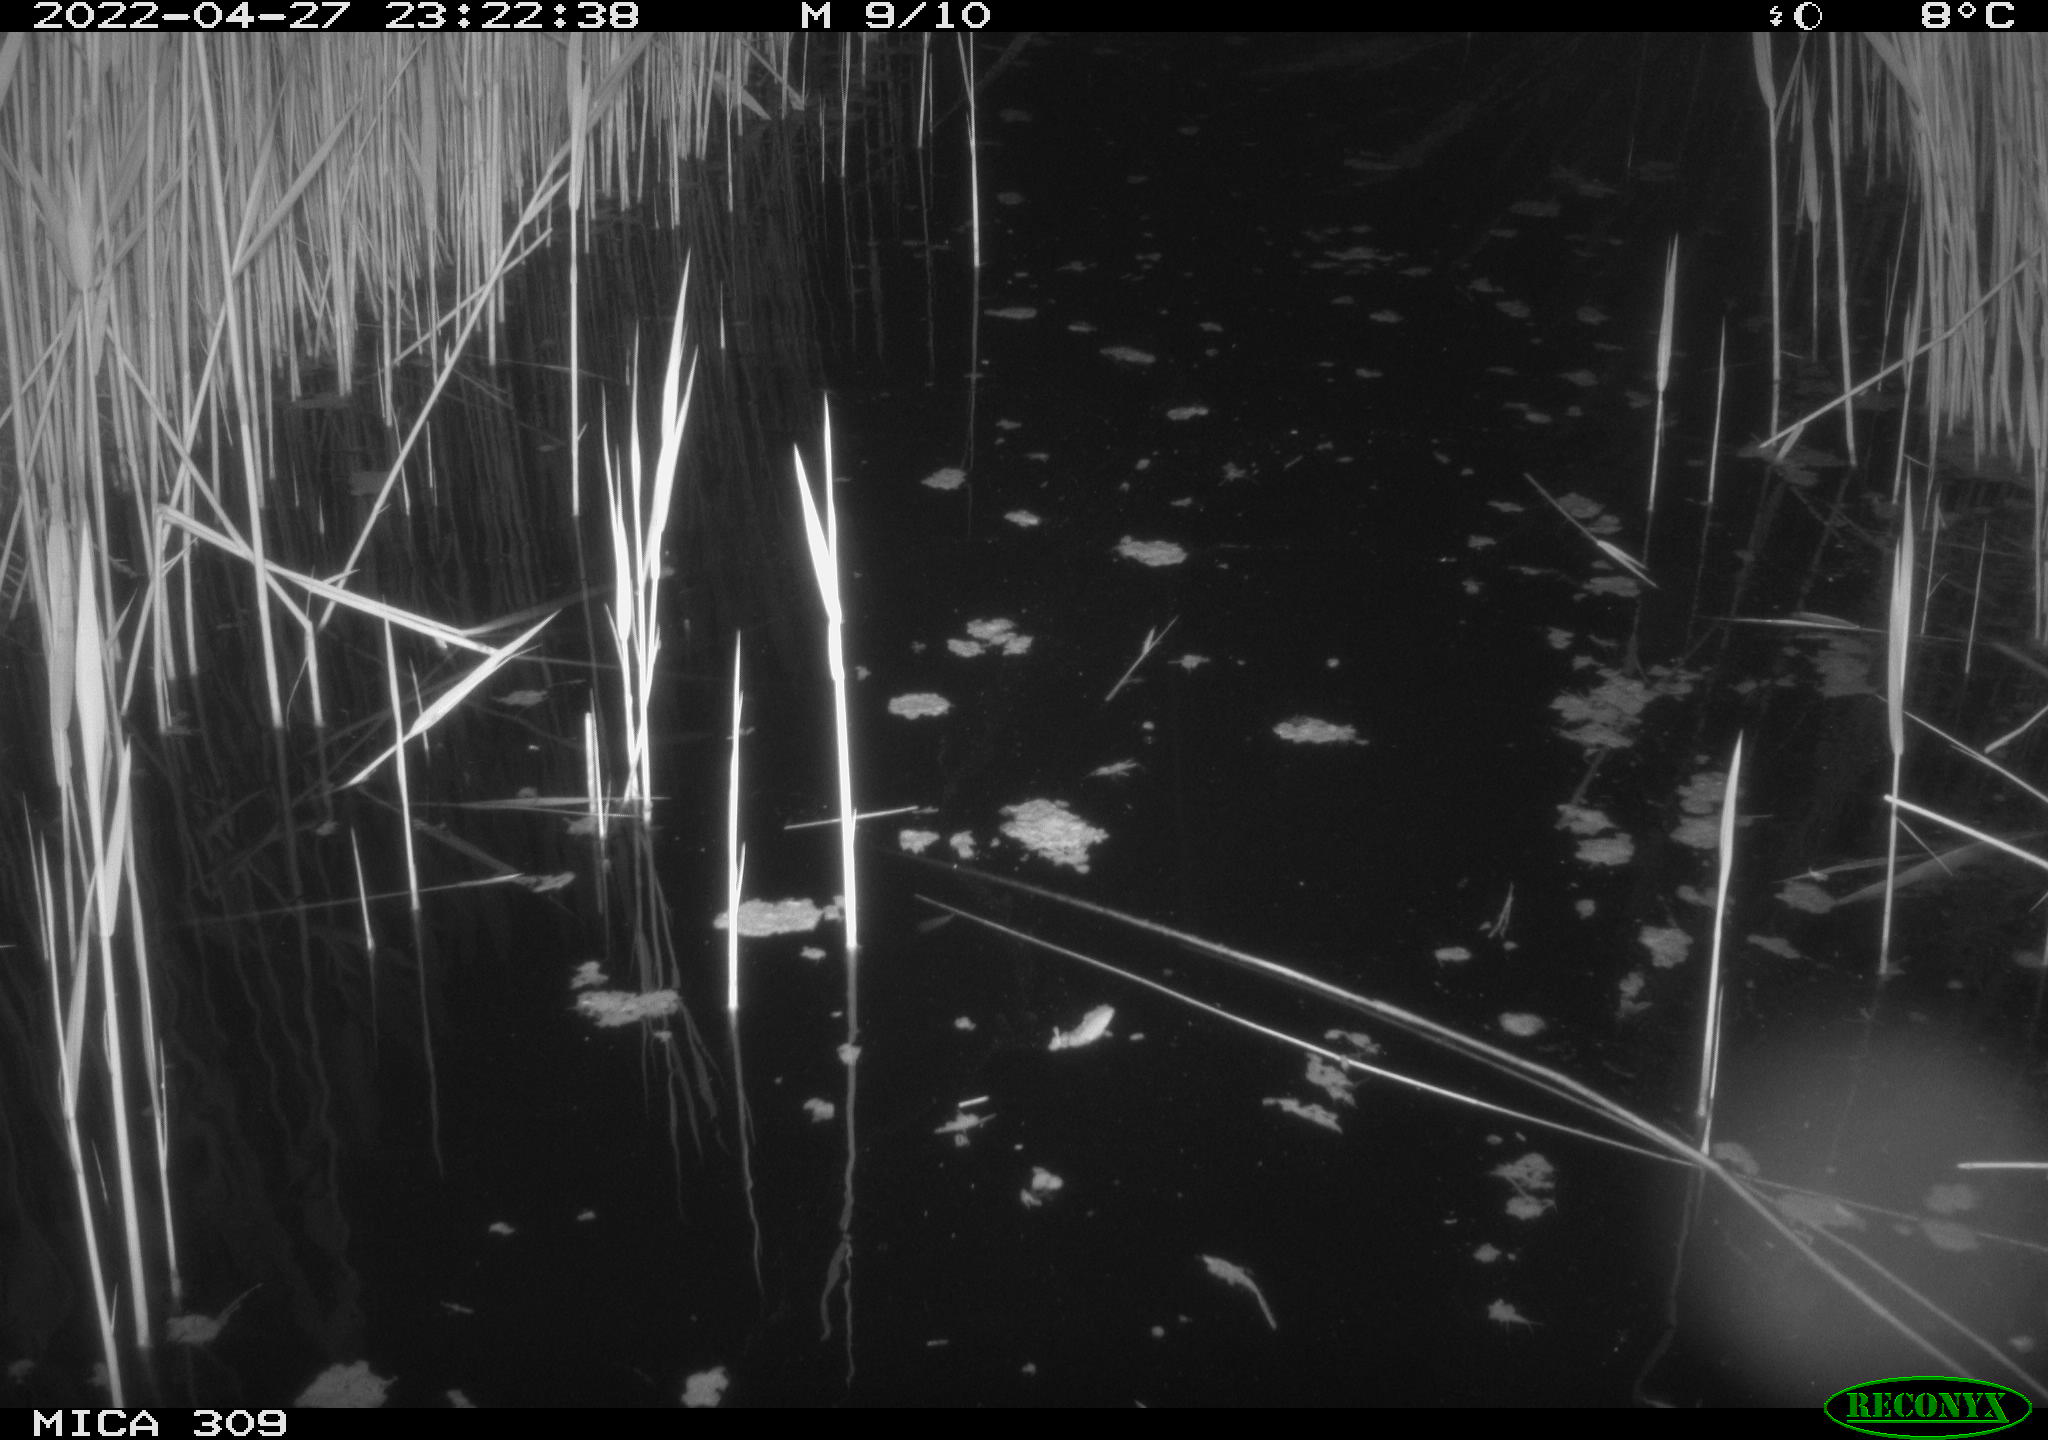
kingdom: Animalia
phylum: Chordata
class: Aves
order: Anseriformes
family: Anatidae
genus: Anas
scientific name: Anas platyrhynchos
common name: Mallard
